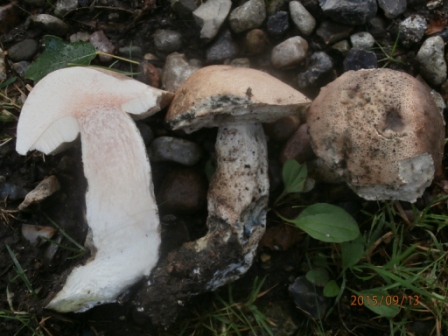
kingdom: Fungi
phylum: Basidiomycota
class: Agaricomycetes
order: Boletales
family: Boletaceae
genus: Leccinum
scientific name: Leccinum duriusculum
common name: poppel-skælrørhat
